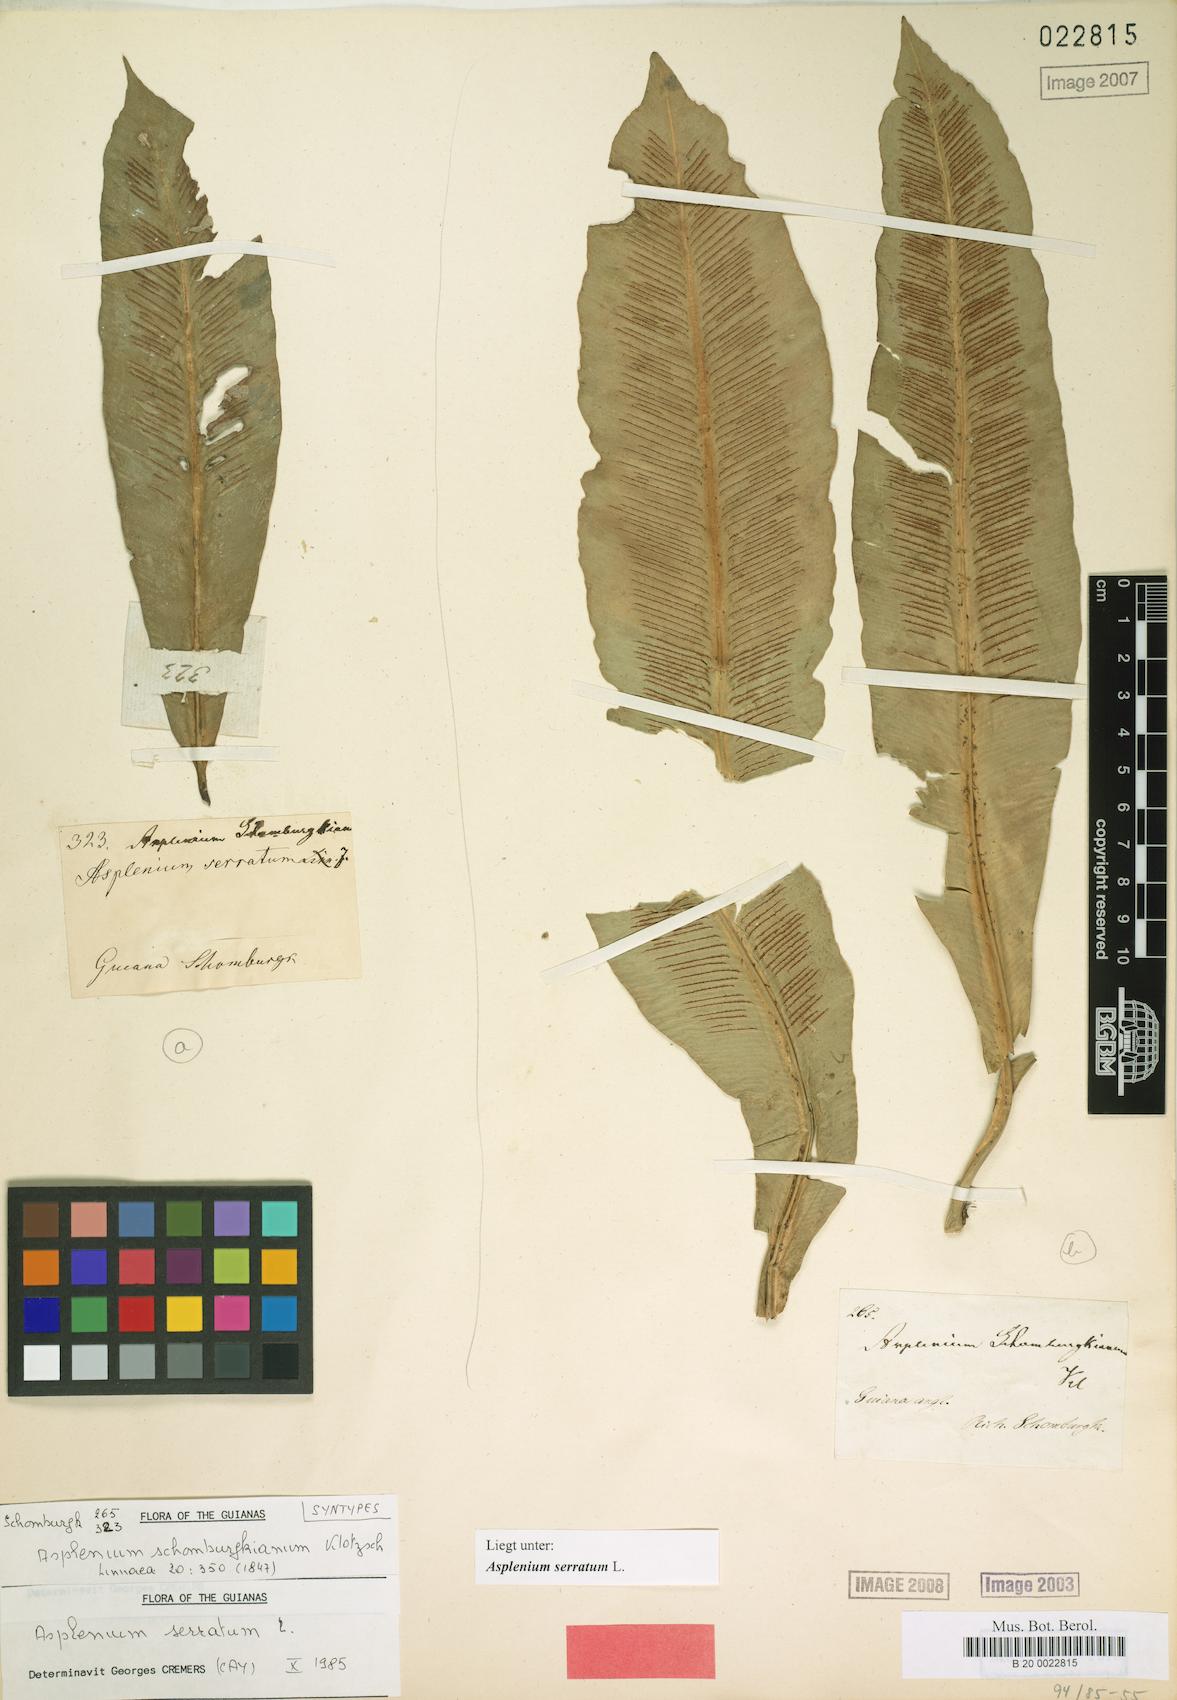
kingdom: Plantae
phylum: Tracheophyta
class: Polypodiopsida
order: Polypodiales
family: Aspleniaceae
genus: Asplenium
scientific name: Asplenium serratum
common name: Wild birdnest fern
